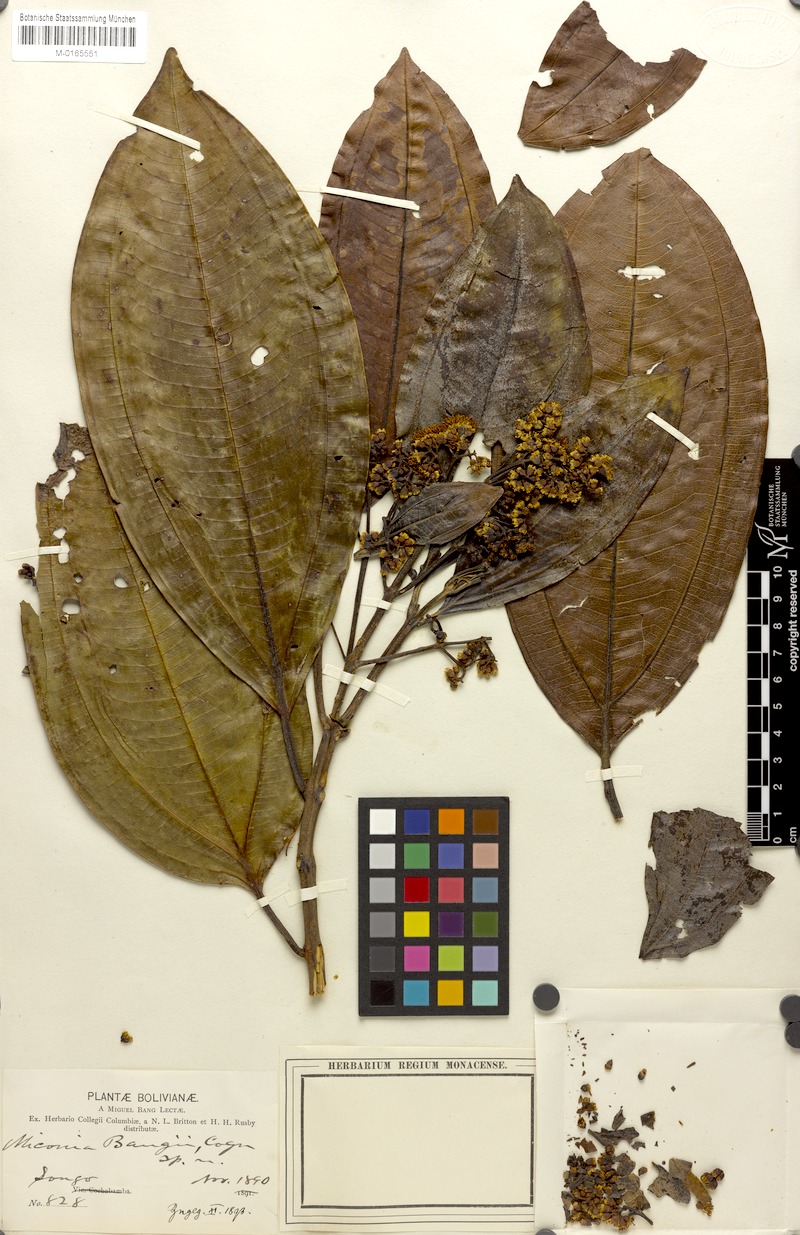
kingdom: Plantae
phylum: Tracheophyta
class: Magnoliopsida
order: Myrtales
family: Melastomataceae
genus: Miconia
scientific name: Miconia bangii
